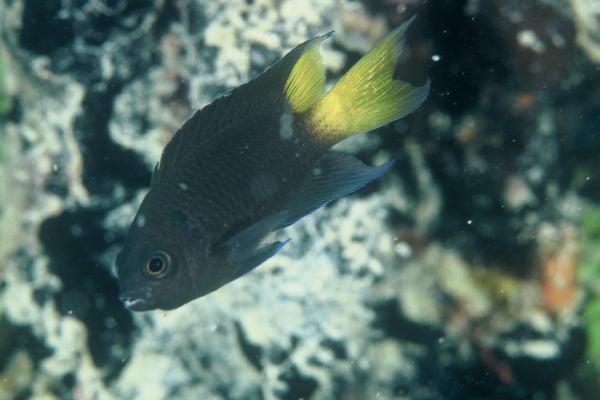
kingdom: Animalia
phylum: Chordata
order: Perciformes
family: Pomacentridae
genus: Neopomacentrus
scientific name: Neopomacentrus violascens
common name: Violet demoiselle
